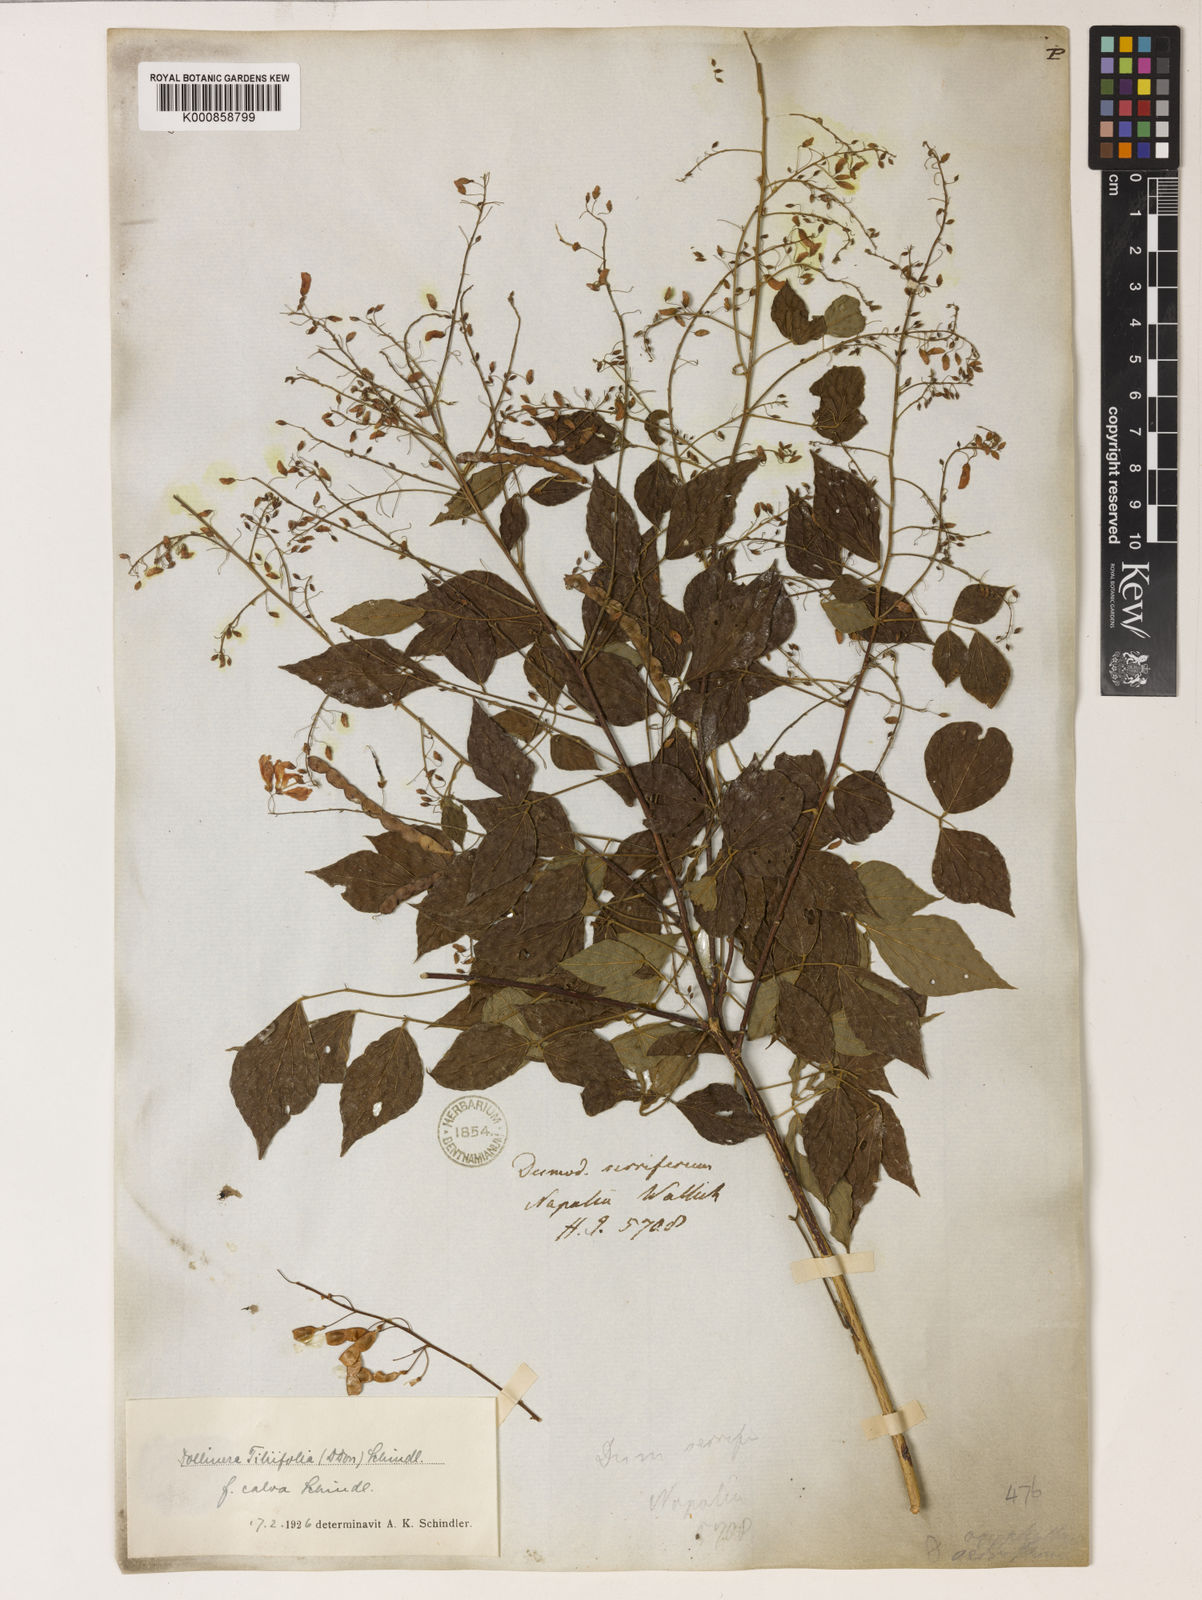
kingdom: Plantae
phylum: Tracheophyta
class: Magnoliopsida
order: Fabales
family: Fabaceae
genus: Sunhangia
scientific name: Sunhangia elegans
